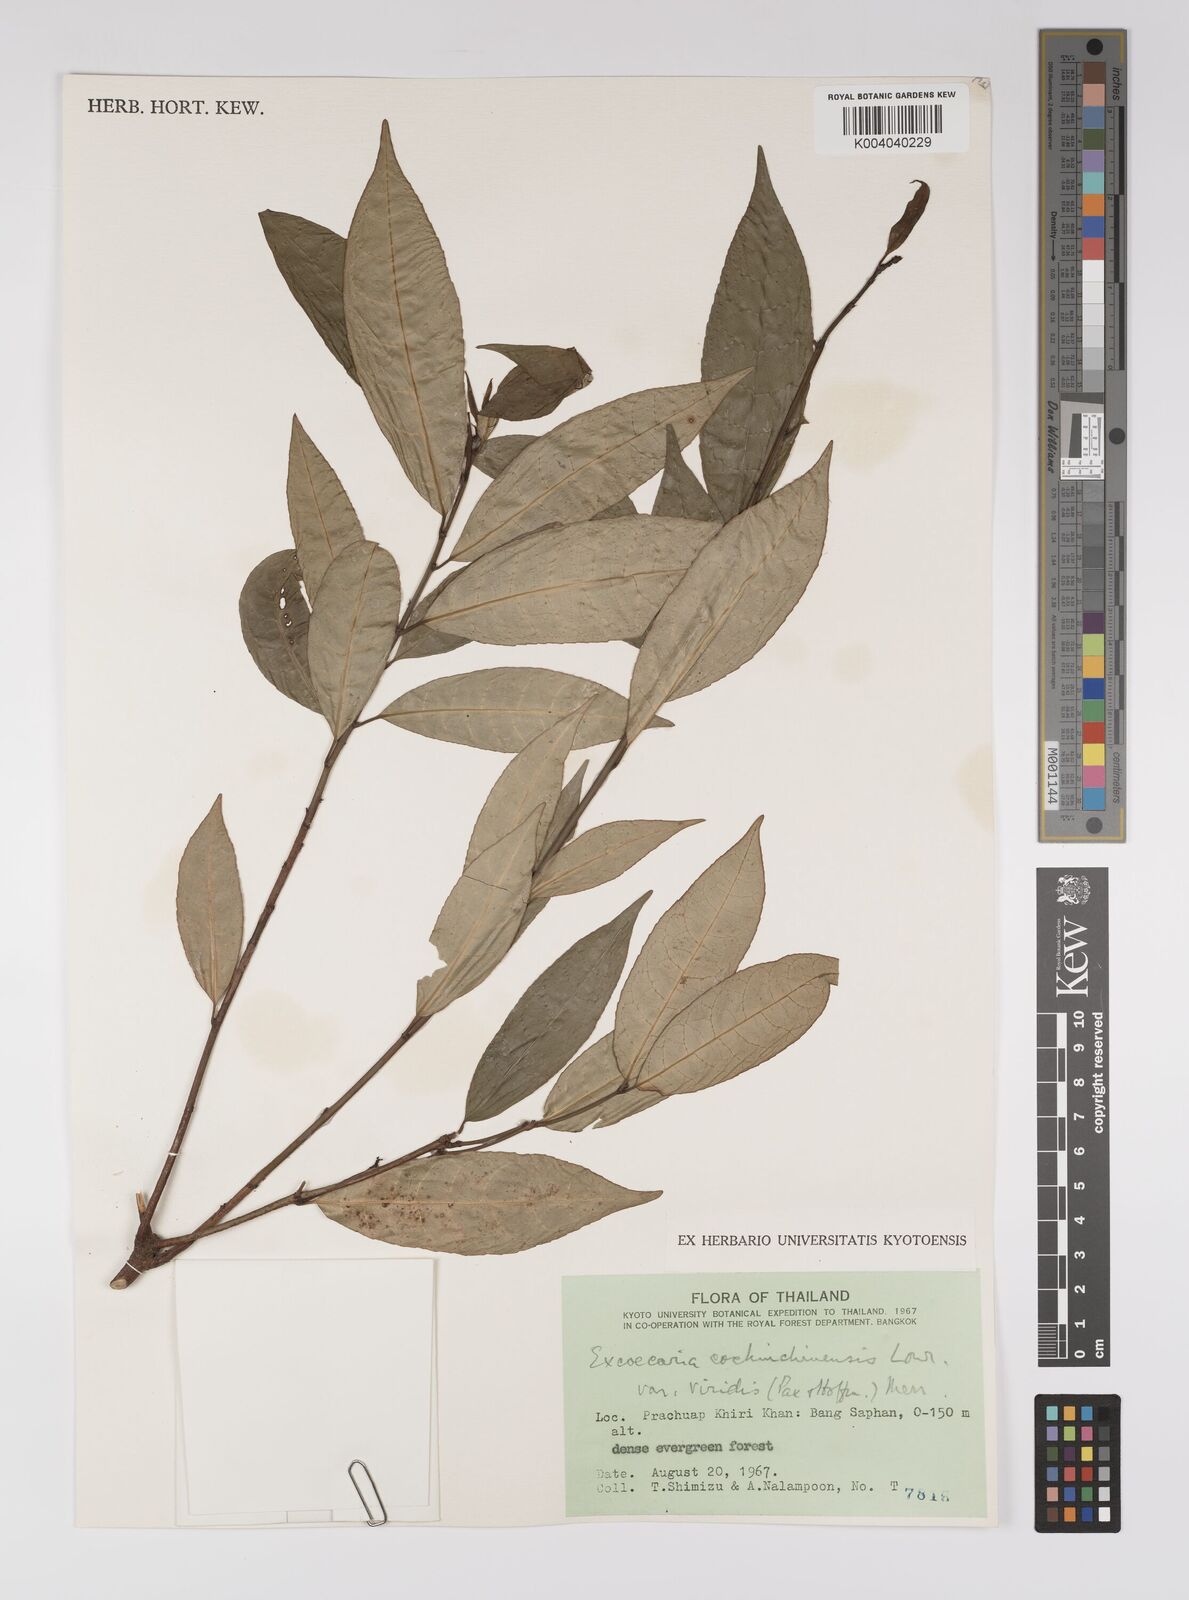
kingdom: Plantae
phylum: Tracheophyta
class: Magnoliopsida
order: Malpighiales
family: Euphorbiaceae
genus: Excoecaria
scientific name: Excoecaria cochinchinensis
